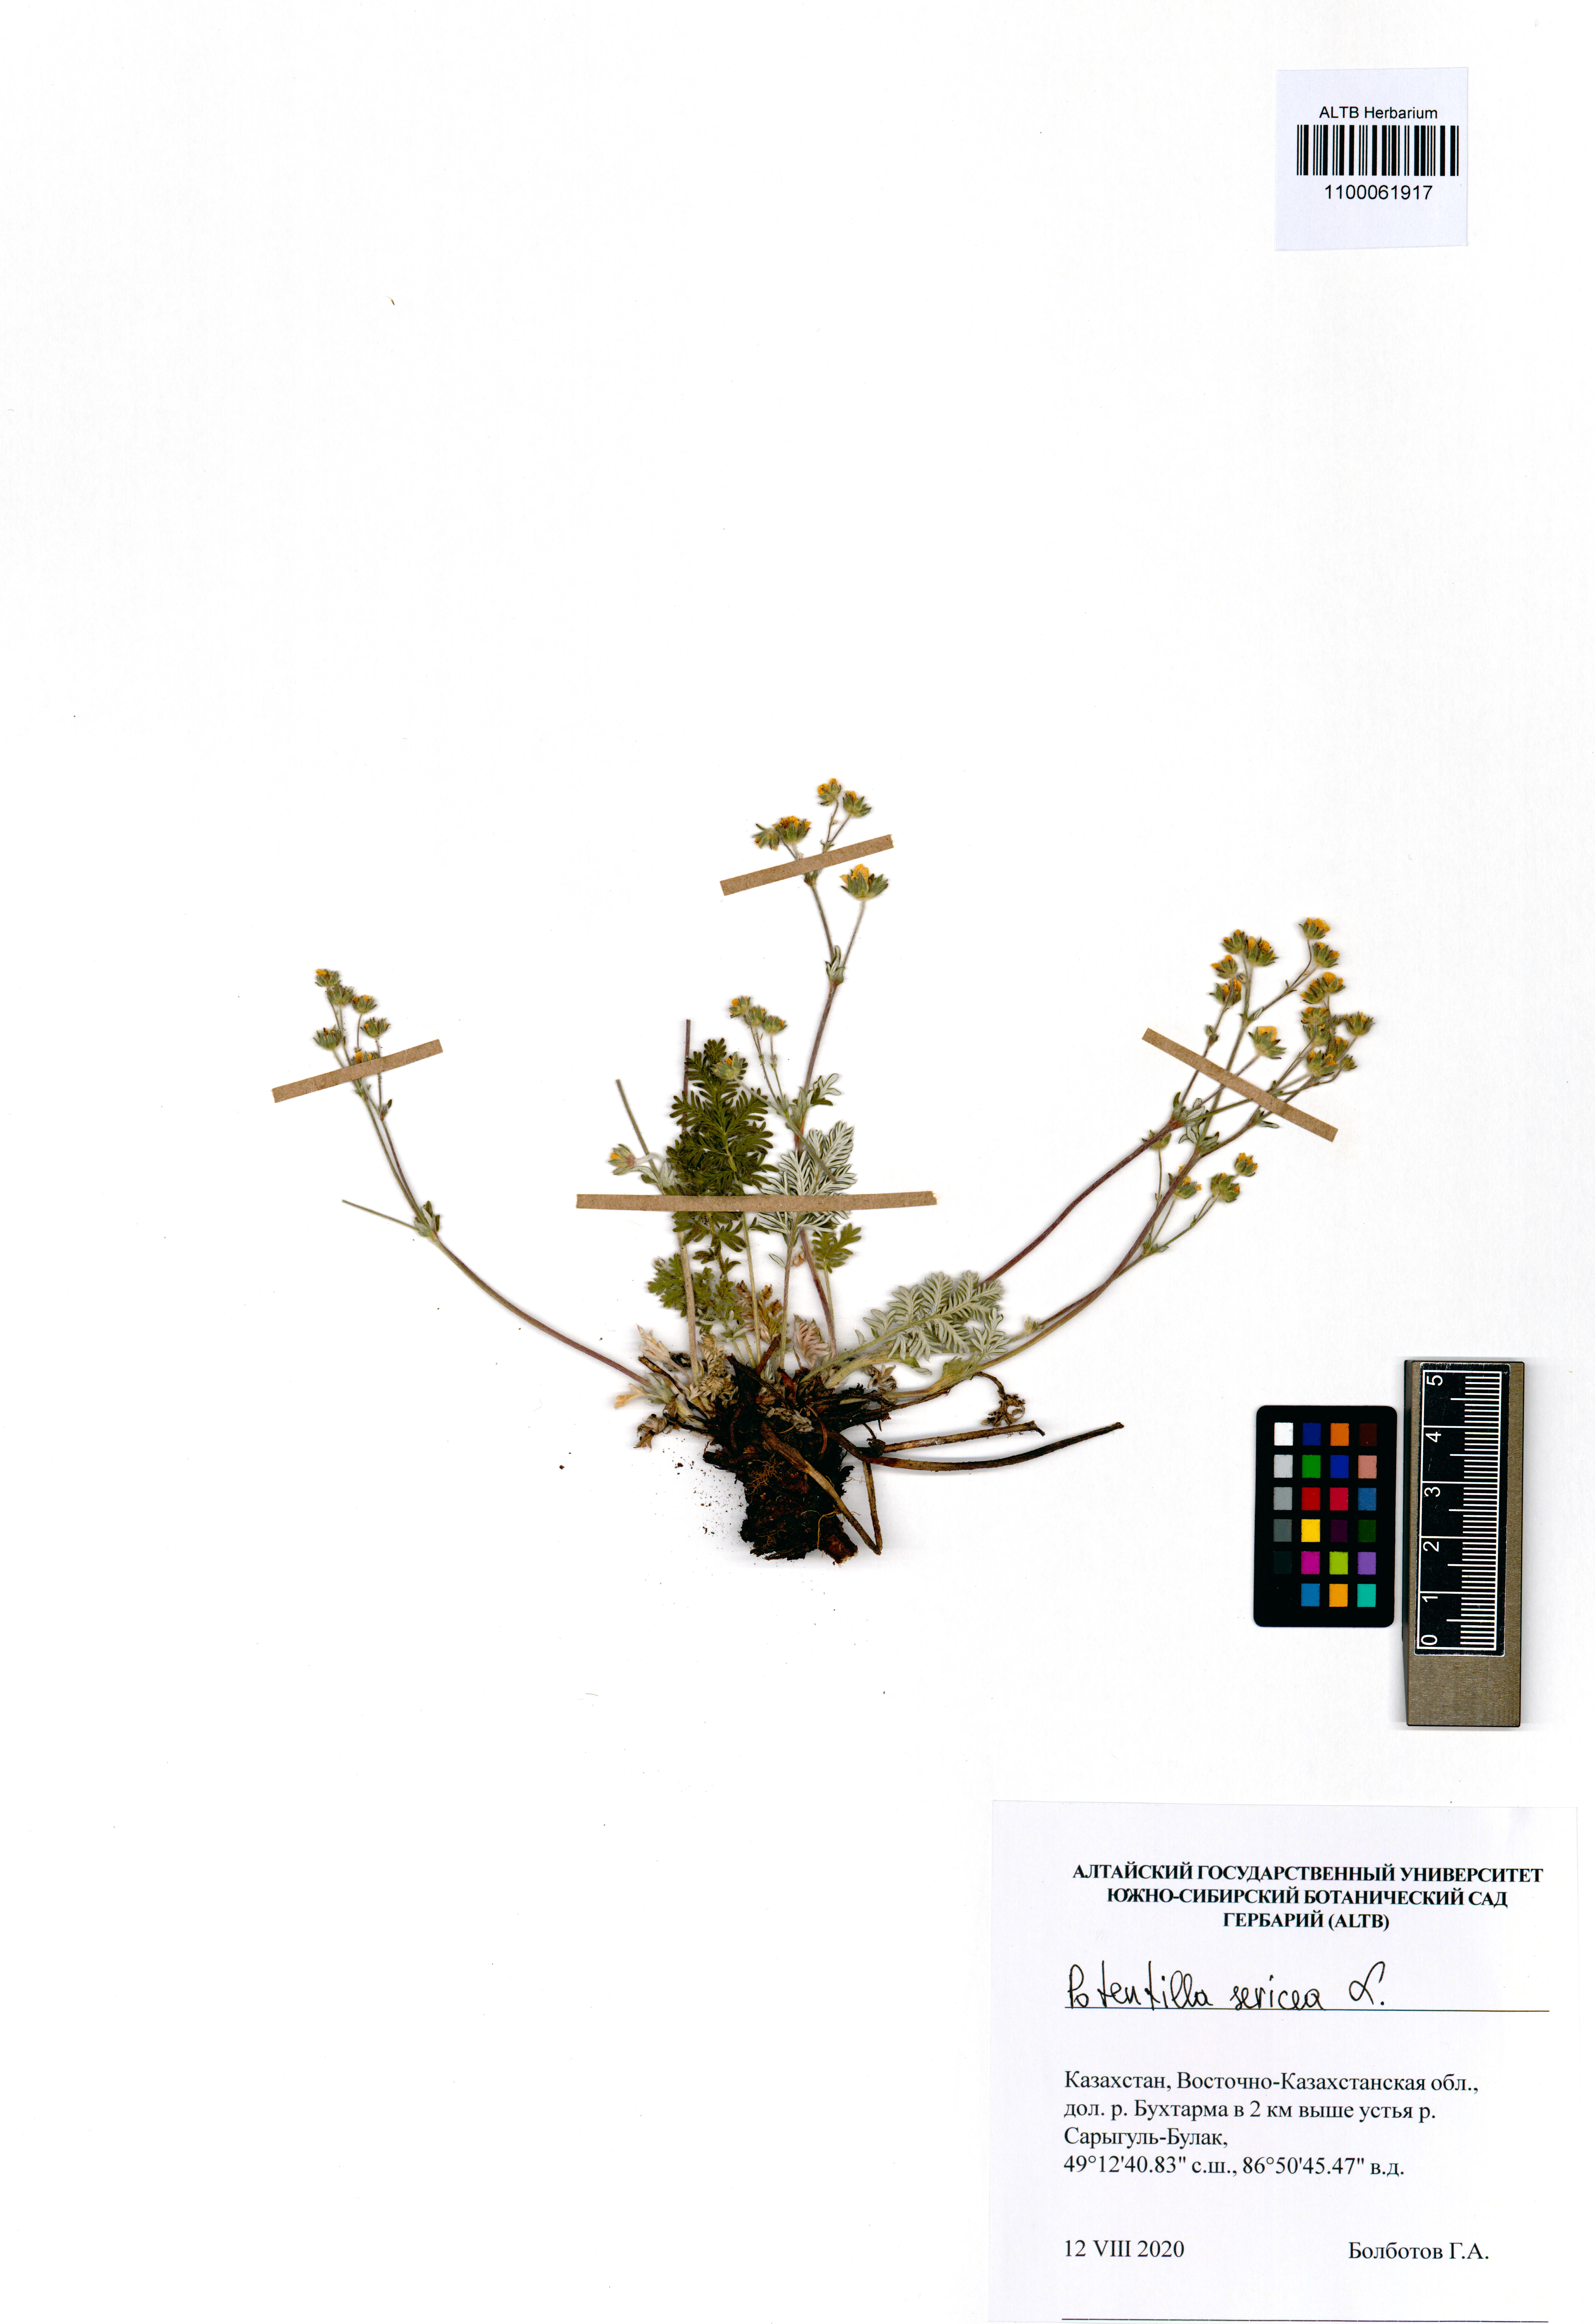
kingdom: Plantae
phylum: Tracheophyta
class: Magnoliopsida
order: Rosales
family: Rosaceae
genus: Potentilla
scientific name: Potentilla sericea
